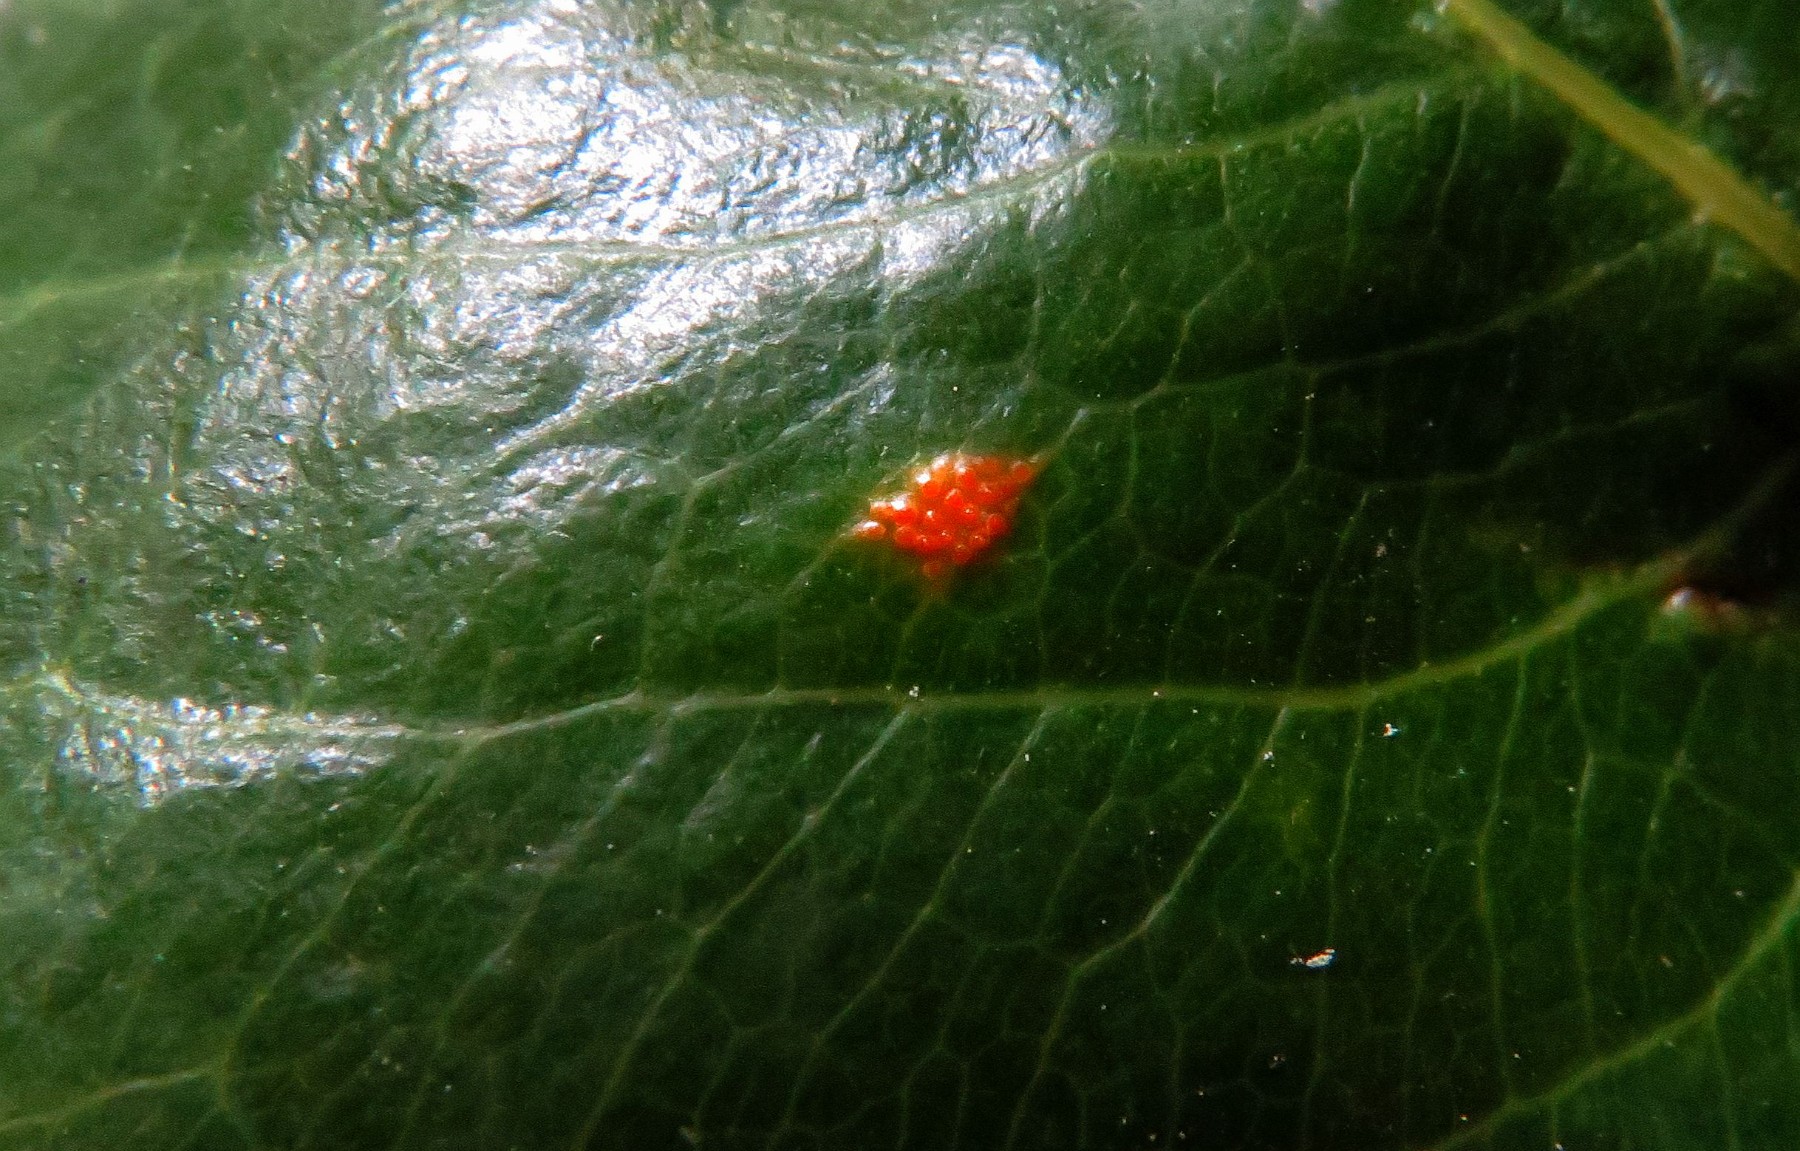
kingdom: Fungi
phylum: Basidiomycota
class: Pucciniomycetes
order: Pucciniales
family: Gymnosporangiaceae
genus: Gymnosporangium
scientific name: Gymnosporangium sabinae
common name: pæregitter-bævrerust
